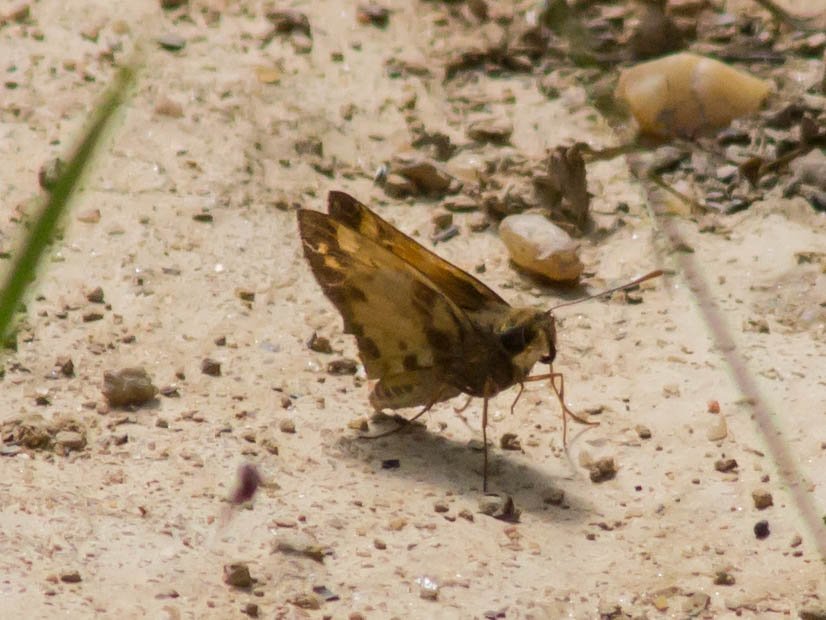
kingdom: Animalia
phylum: Arthropoda
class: Insecta
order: Lepidoptera
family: Hesperiidae
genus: Lon
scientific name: Lon zabulon
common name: Zabulon Skipper
